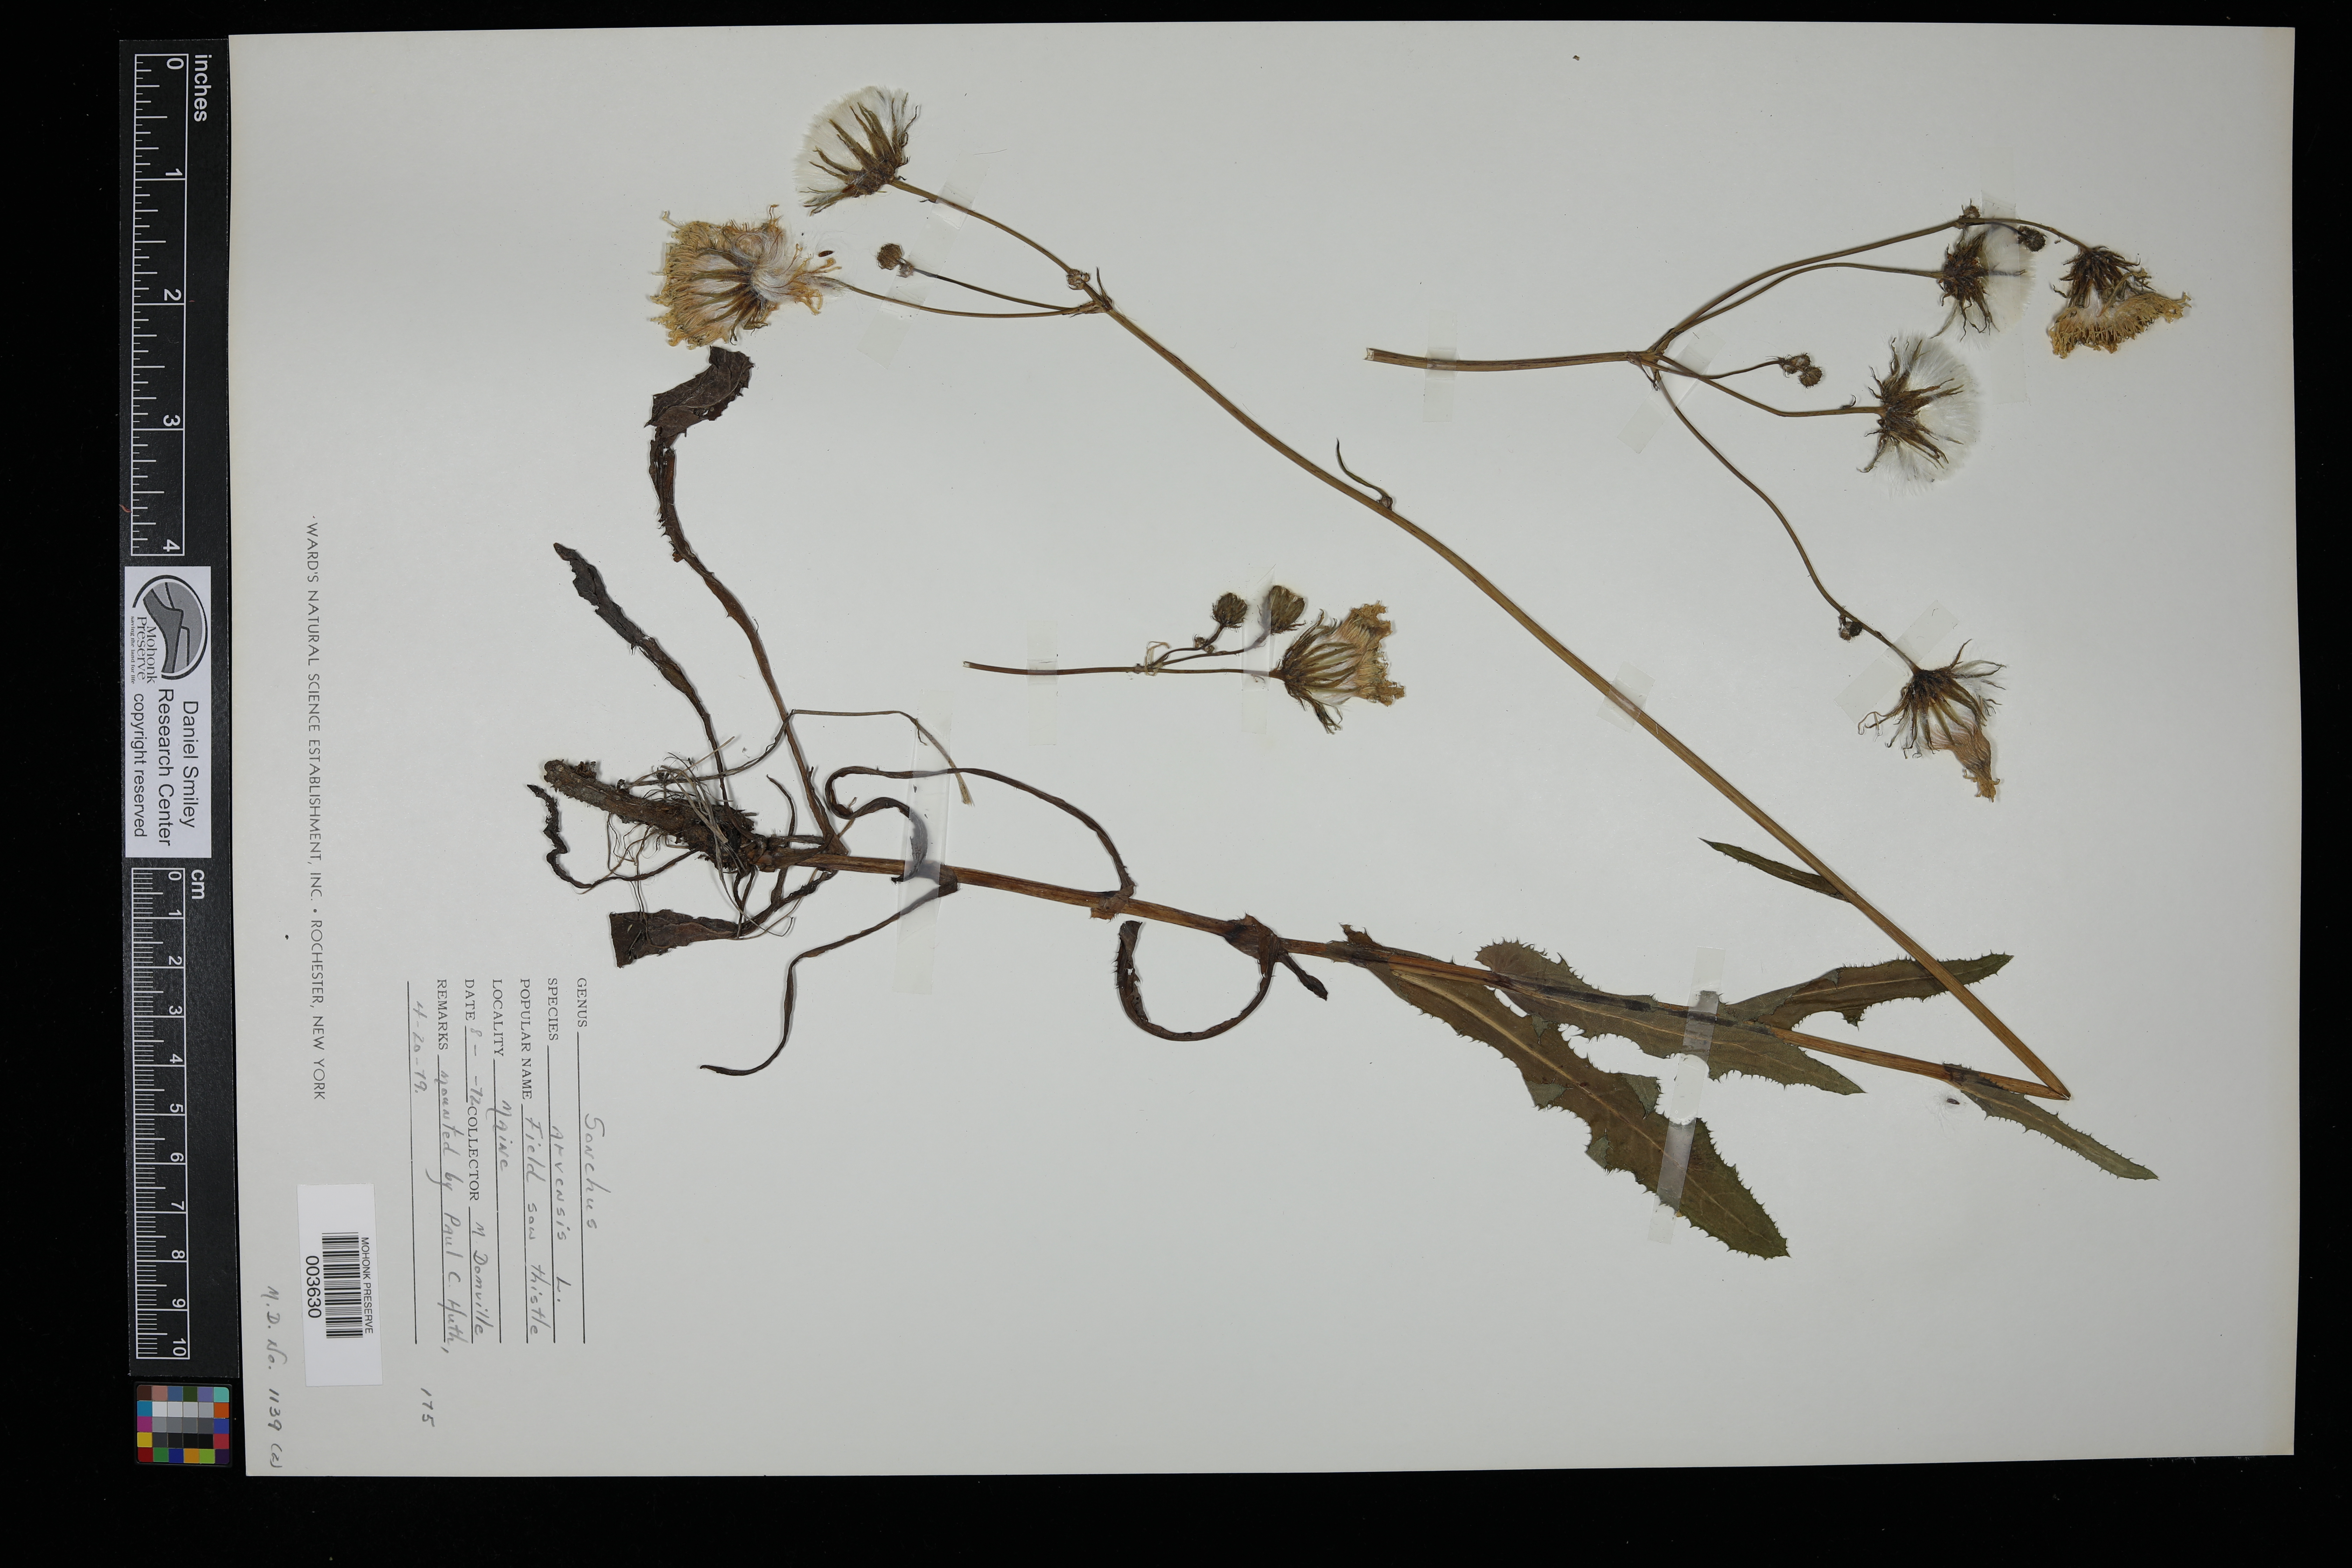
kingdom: Plantae
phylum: Tracheophyta
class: Magnoliopsida
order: Asterales
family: Asteraceae
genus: Sonchus
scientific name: Sonchus arvensis
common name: Perennial sow-thistle
